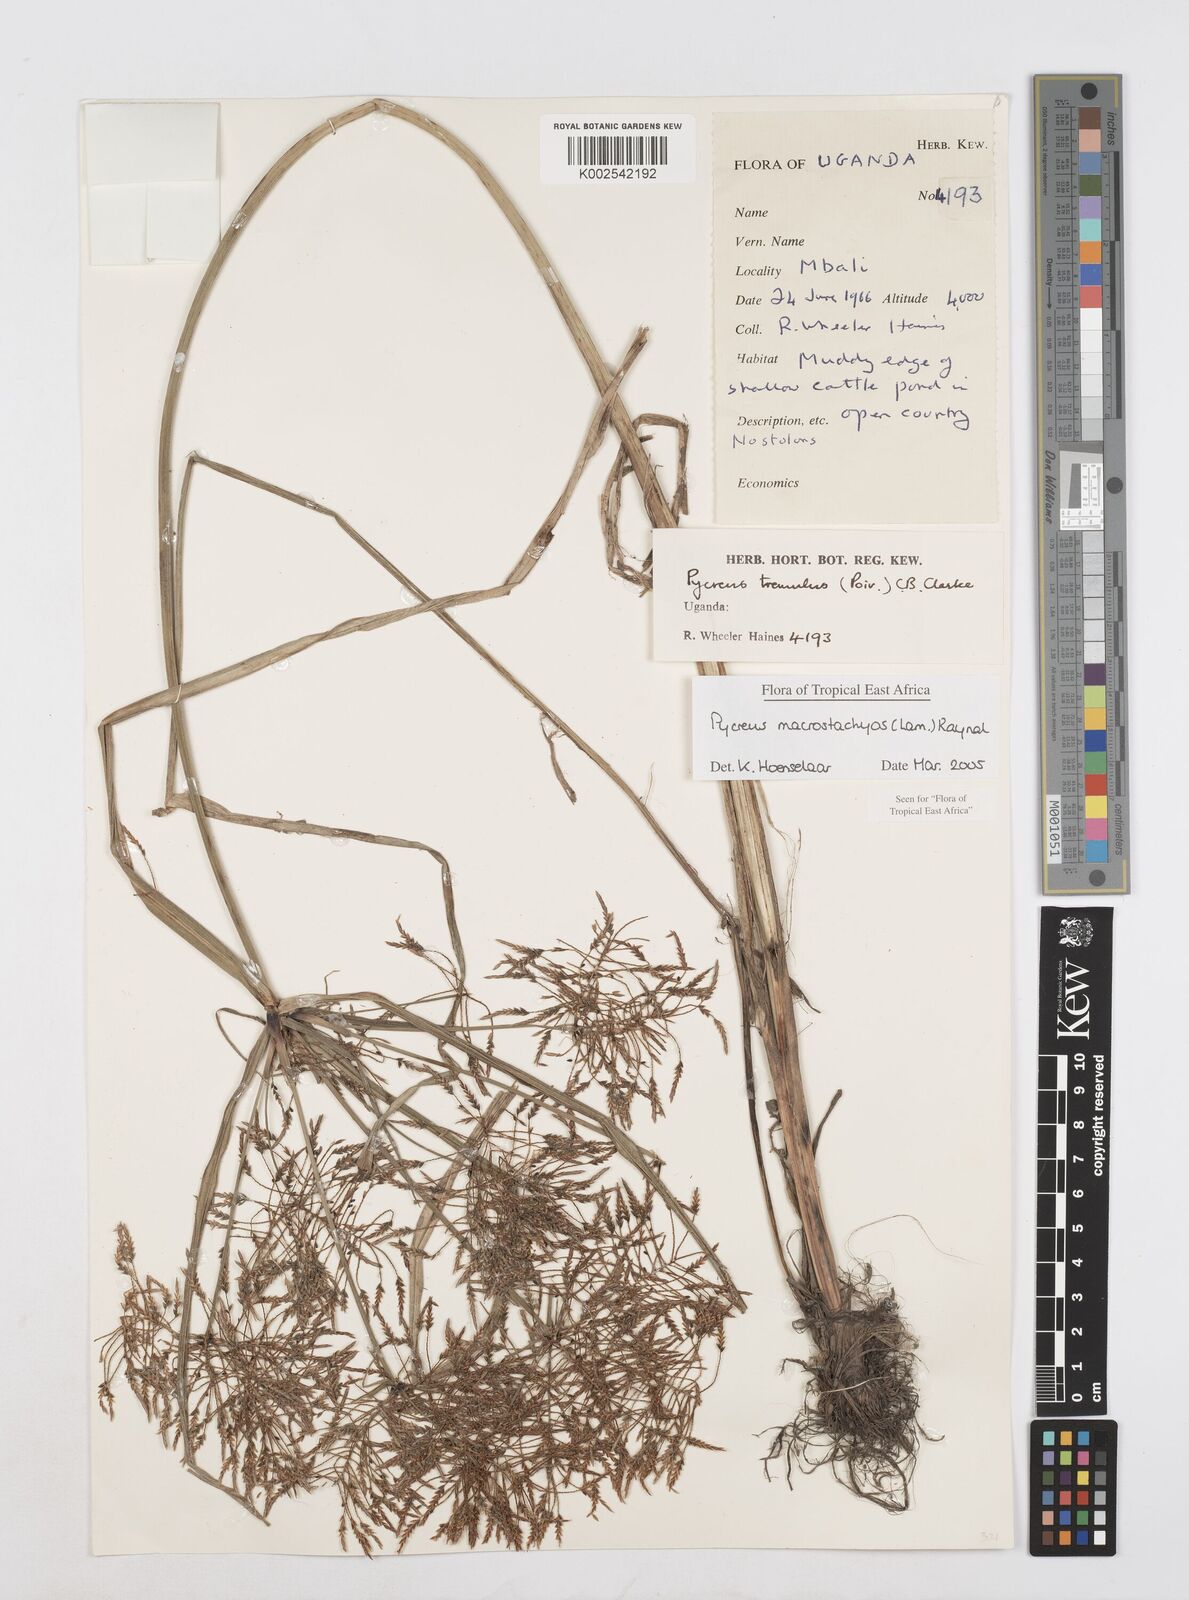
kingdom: Plantae
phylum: Tracheophyta
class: Liliopsida
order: Poales
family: Cyperaceae
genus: Cyperus
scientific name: Cyperus macrostachyos
